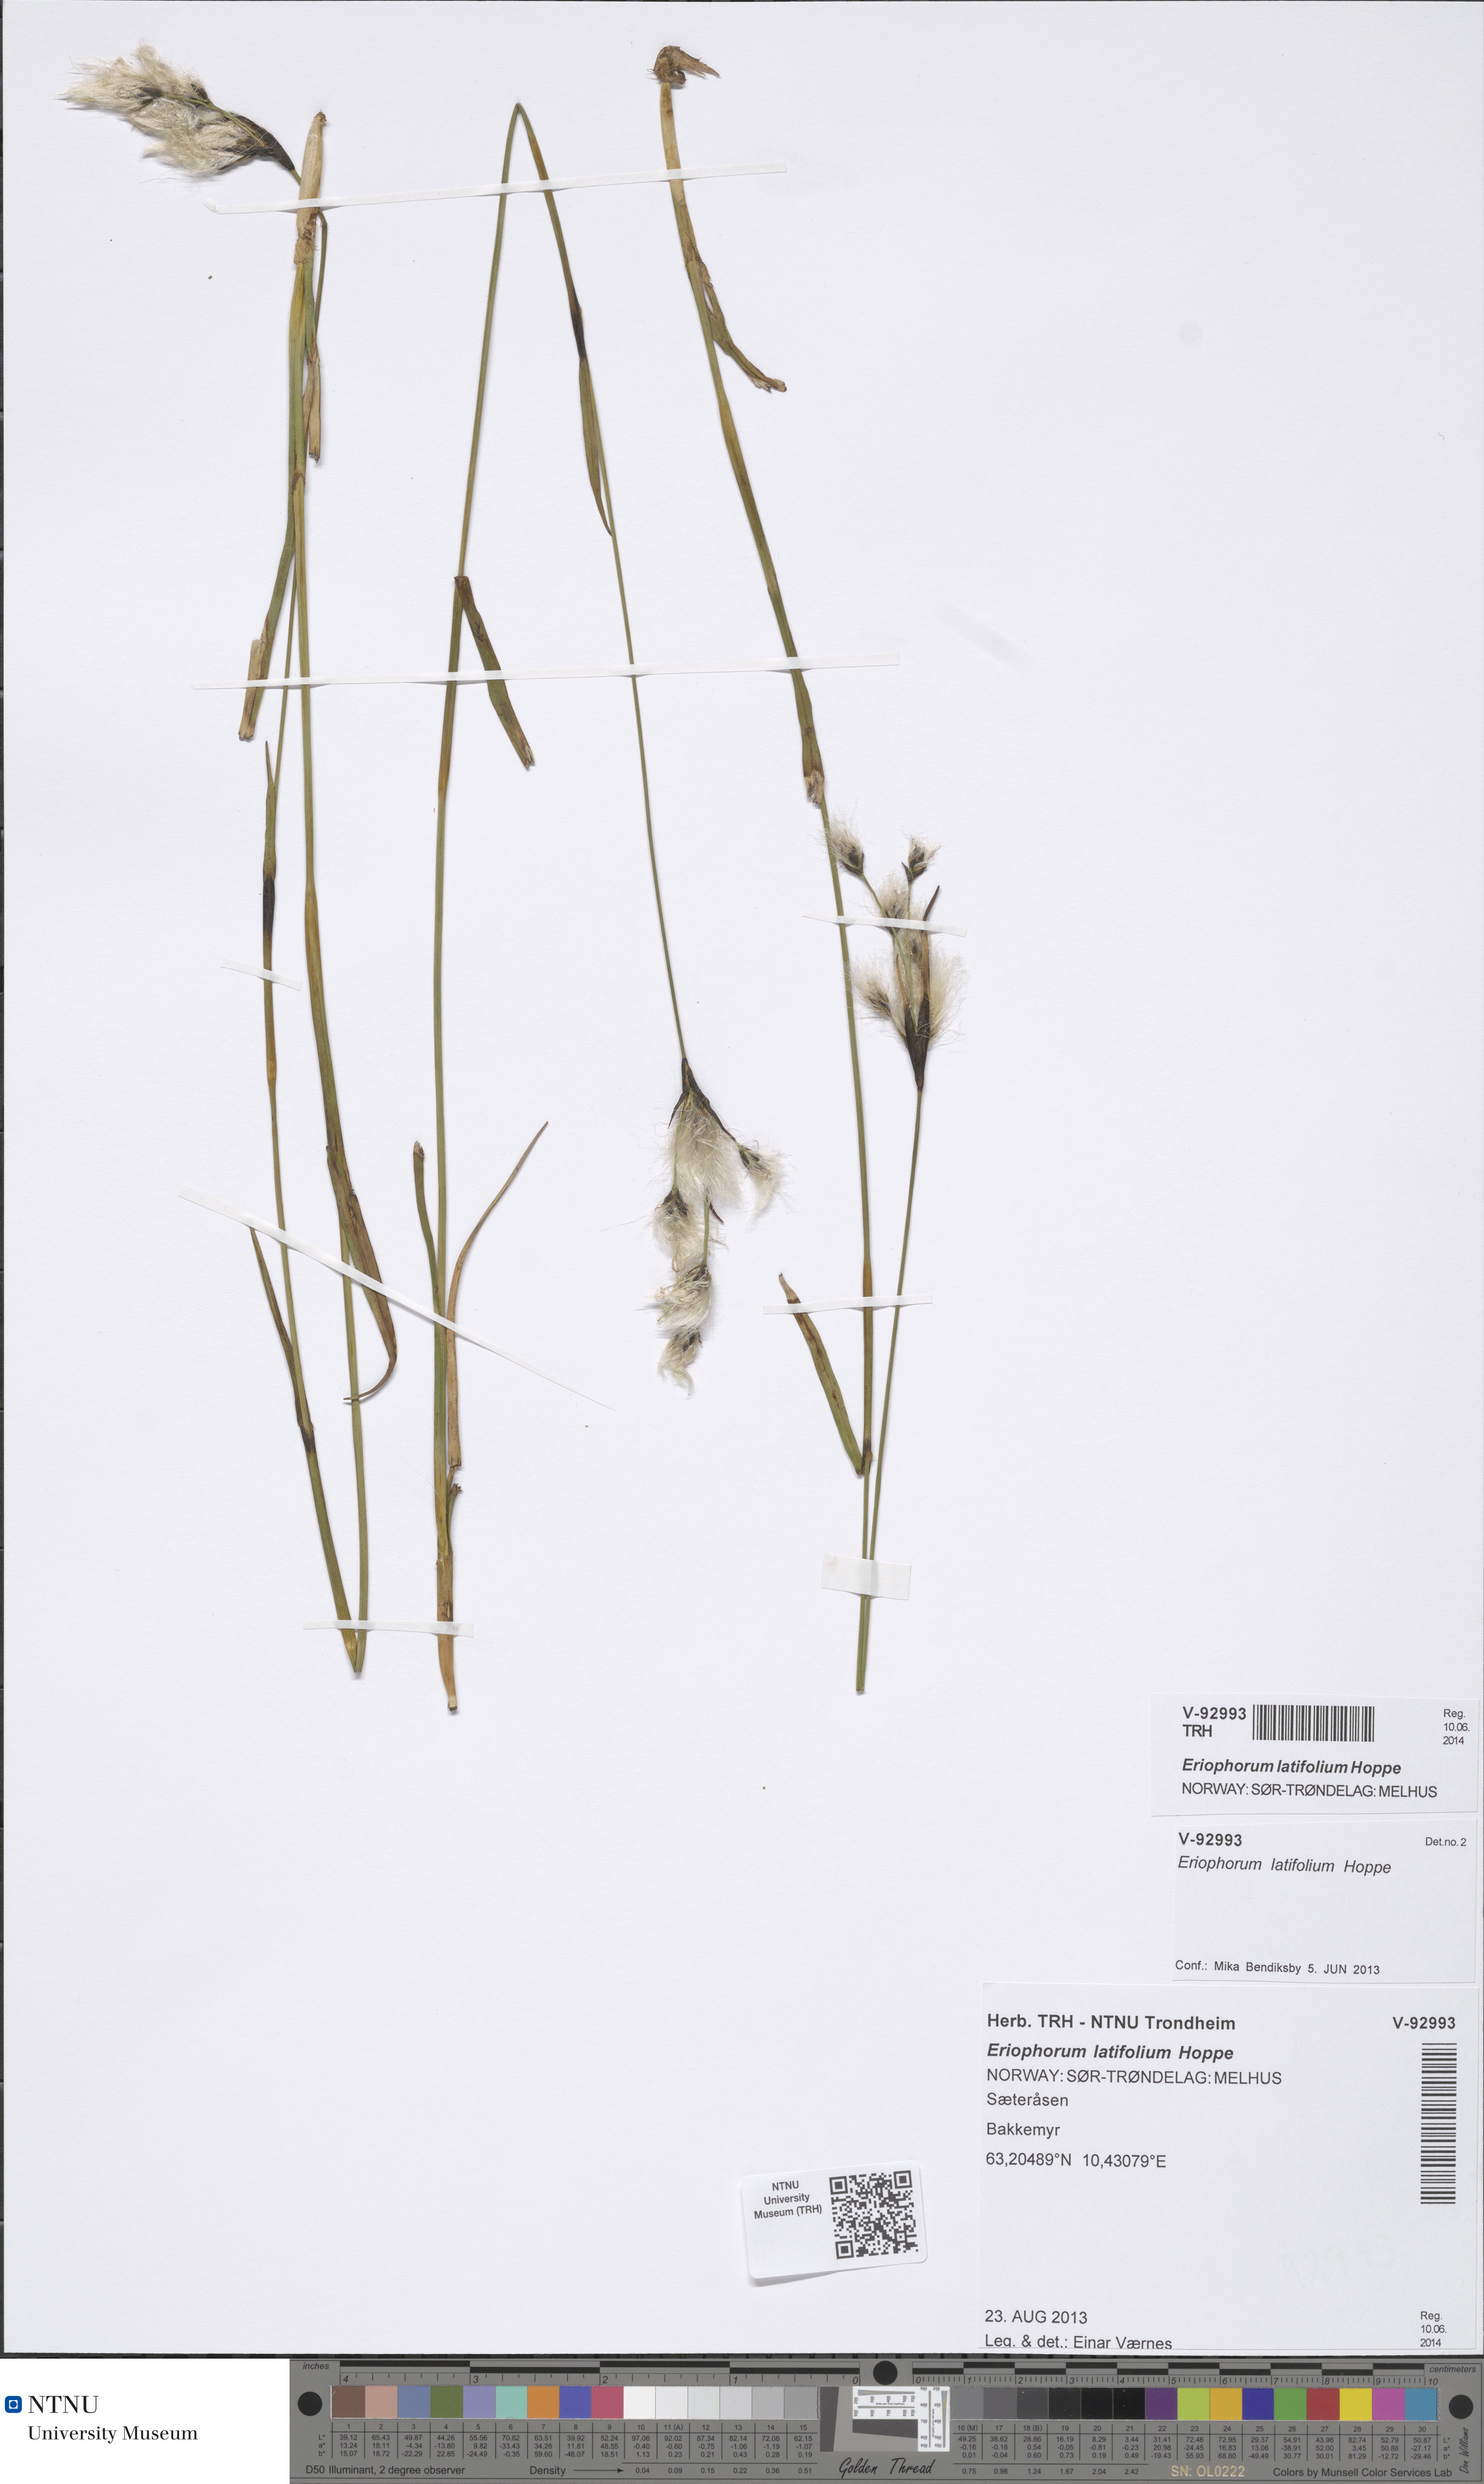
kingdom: Plantae
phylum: Tracheophyta
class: Liliopsida
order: Poales
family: Cyperaceae
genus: Eriophorum
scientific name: Eriophorum latifolium
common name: Broad-leaved cottongrass
